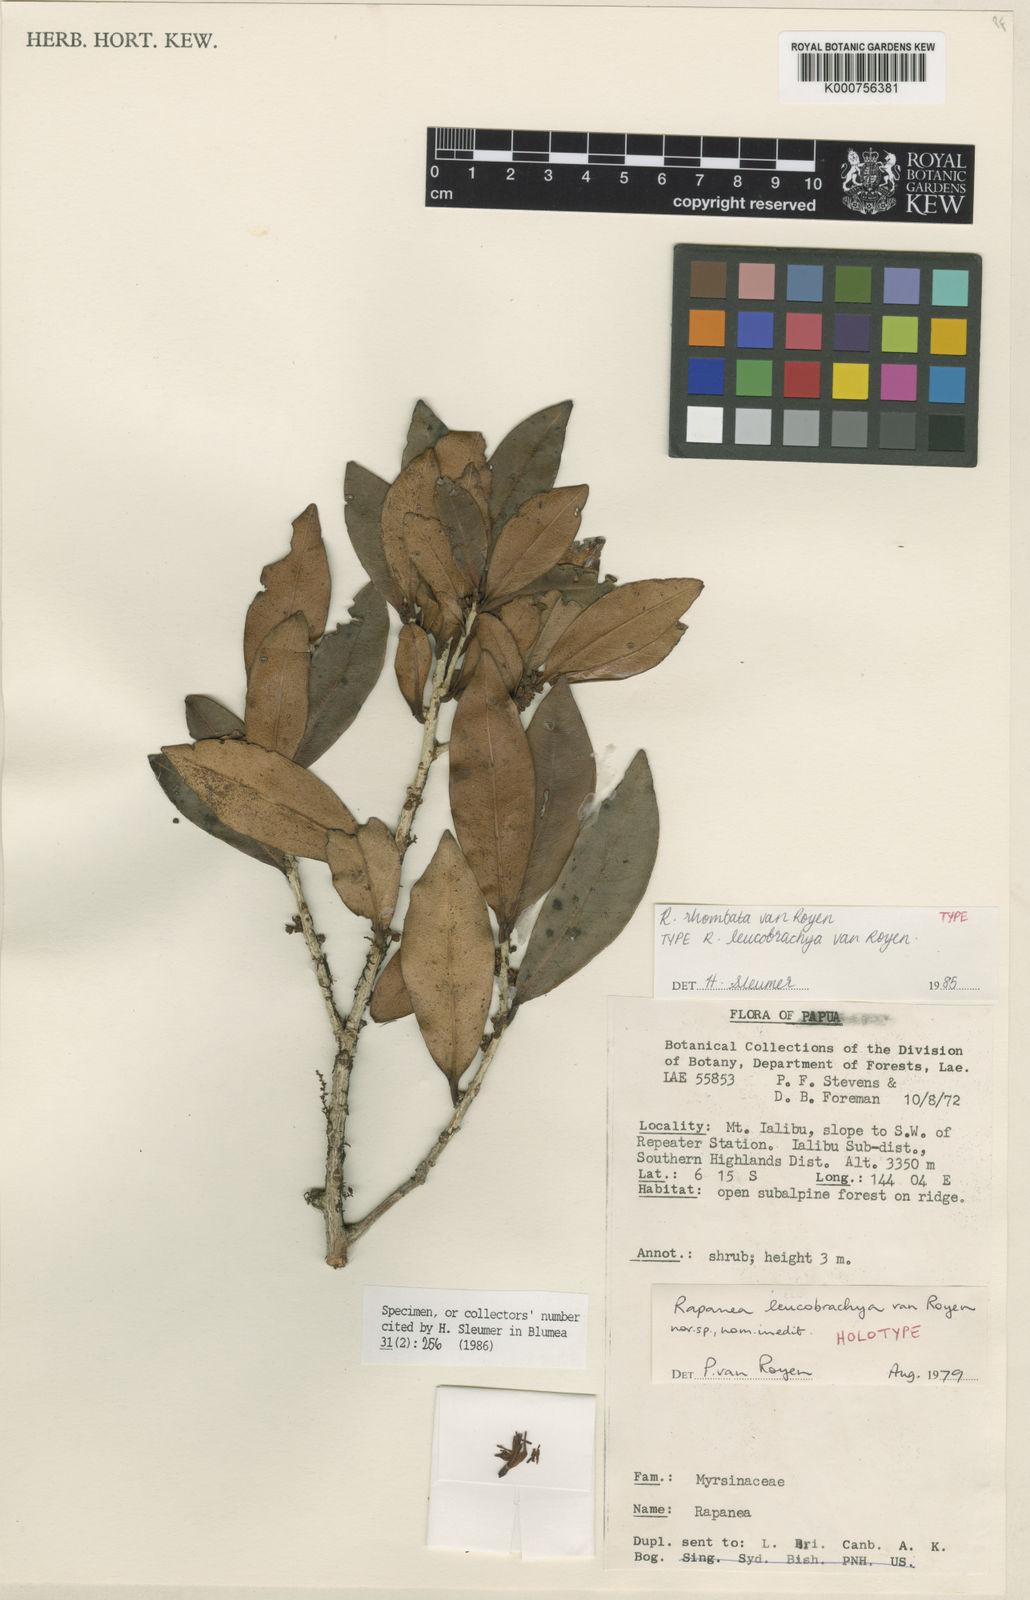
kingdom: Plantae
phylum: Tracheophyta
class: Magnoliopsida
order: Ericales
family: Primulaceae
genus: Myrsine
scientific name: Myrsine rhombata
